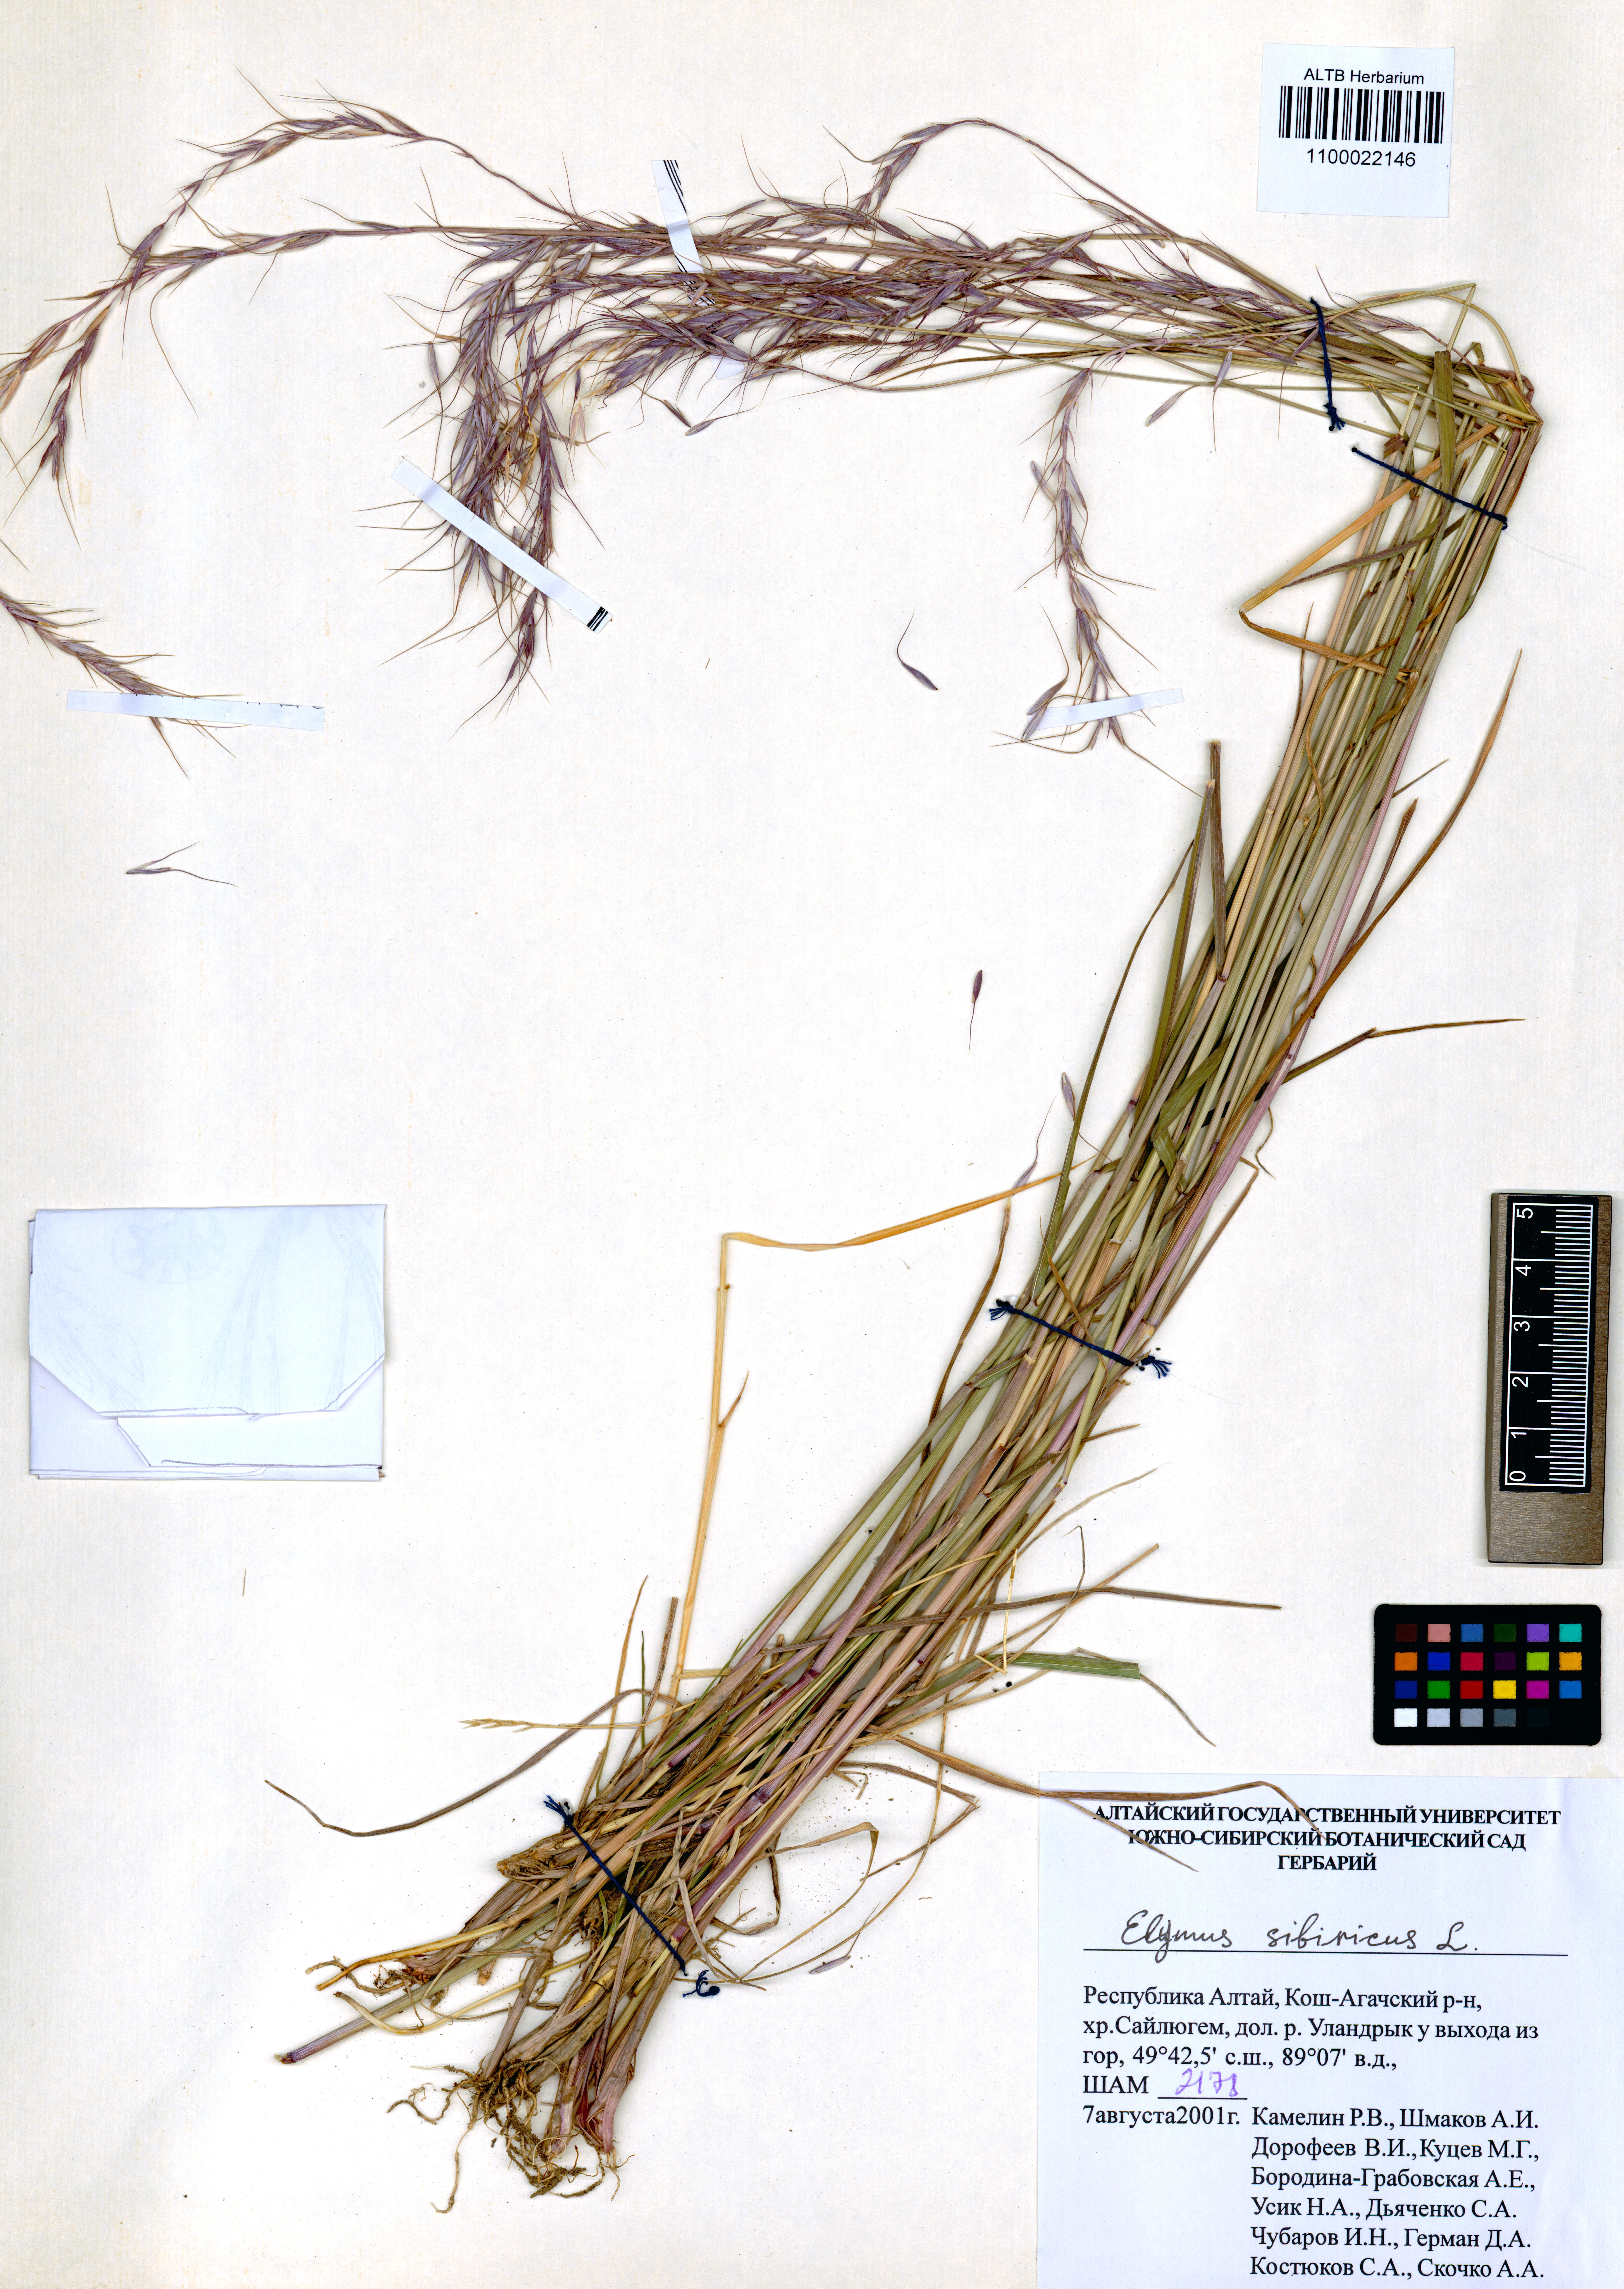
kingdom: Plantae
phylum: Tracheophyta
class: Liliopsida
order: Poales
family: Poaceae
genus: Elymus
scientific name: Elymus sibiricus
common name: Siberian wildrye
